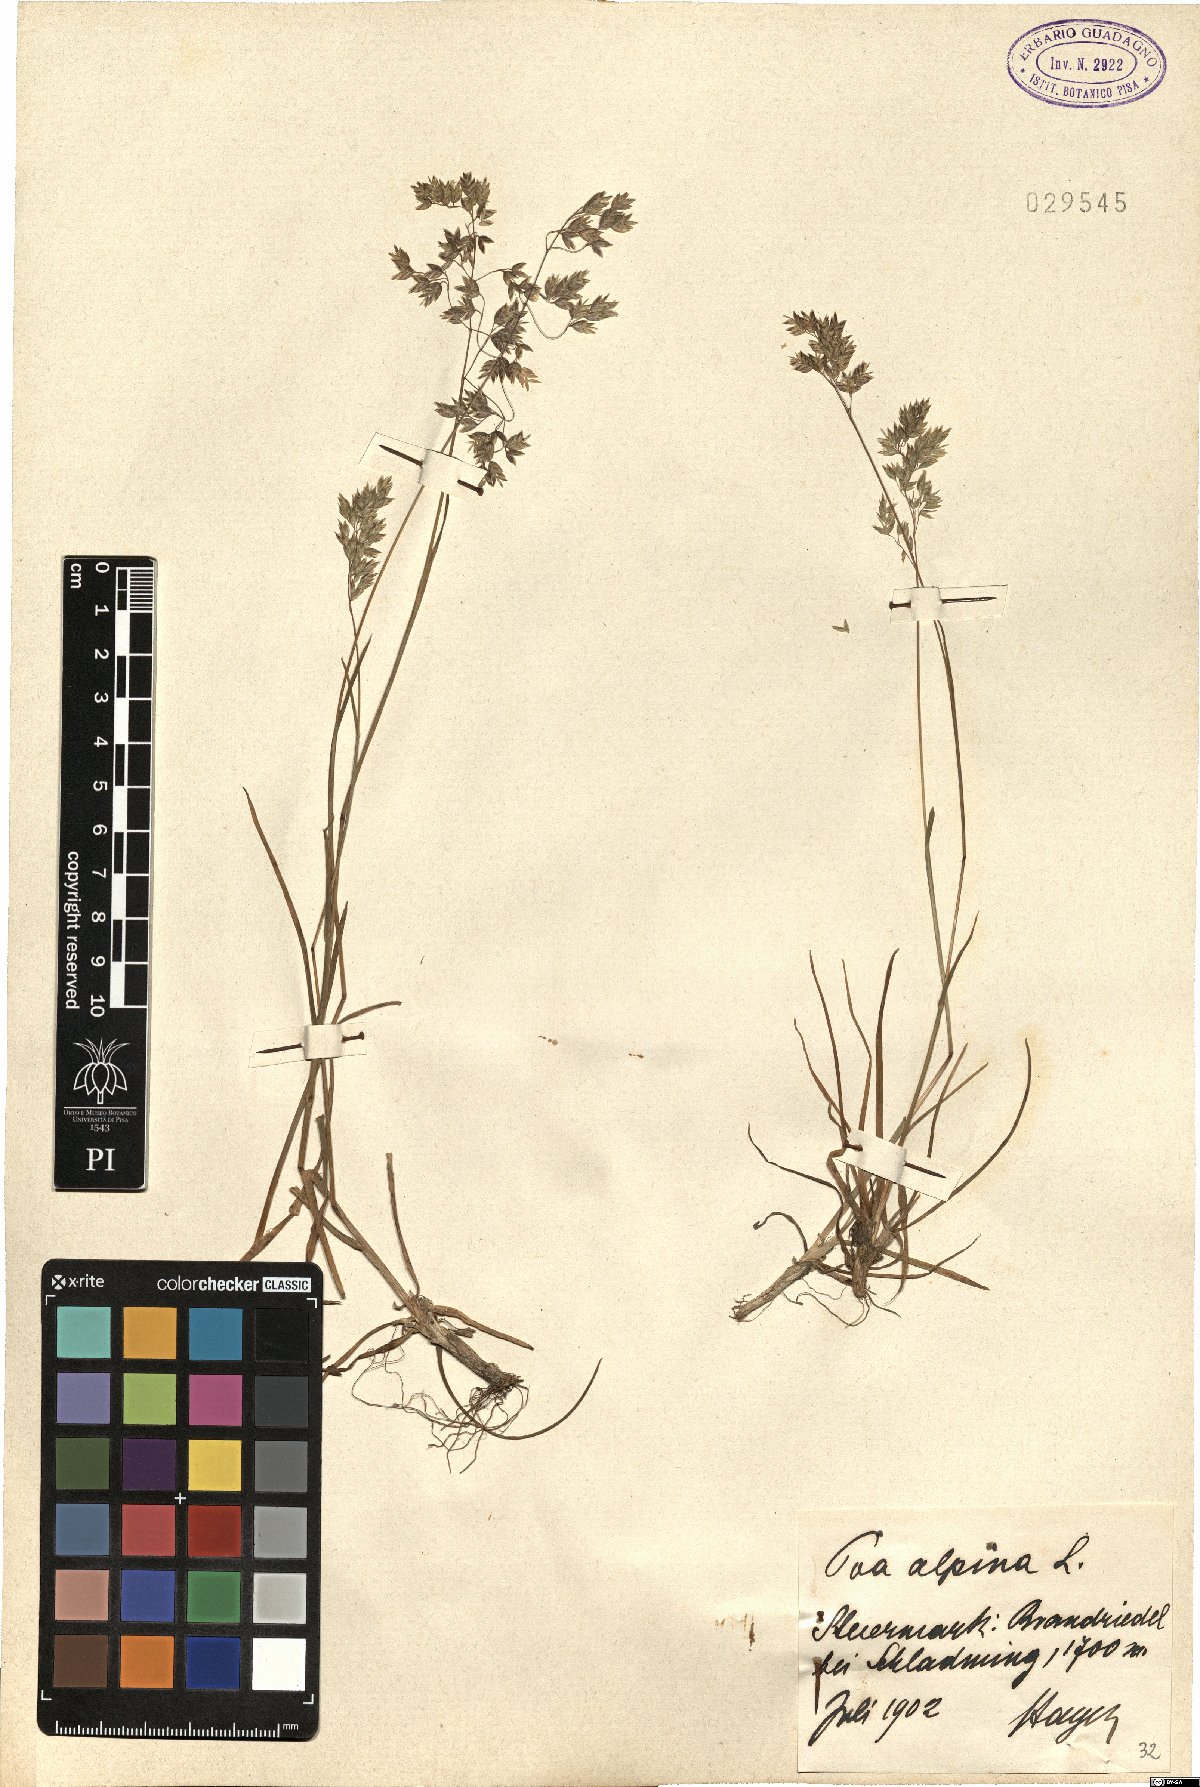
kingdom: Plantae
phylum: Tracheophyta
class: Liliopsida
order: Poales
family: Poaceae
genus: Poa
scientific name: Poa alpina
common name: Alpine bluegrass
